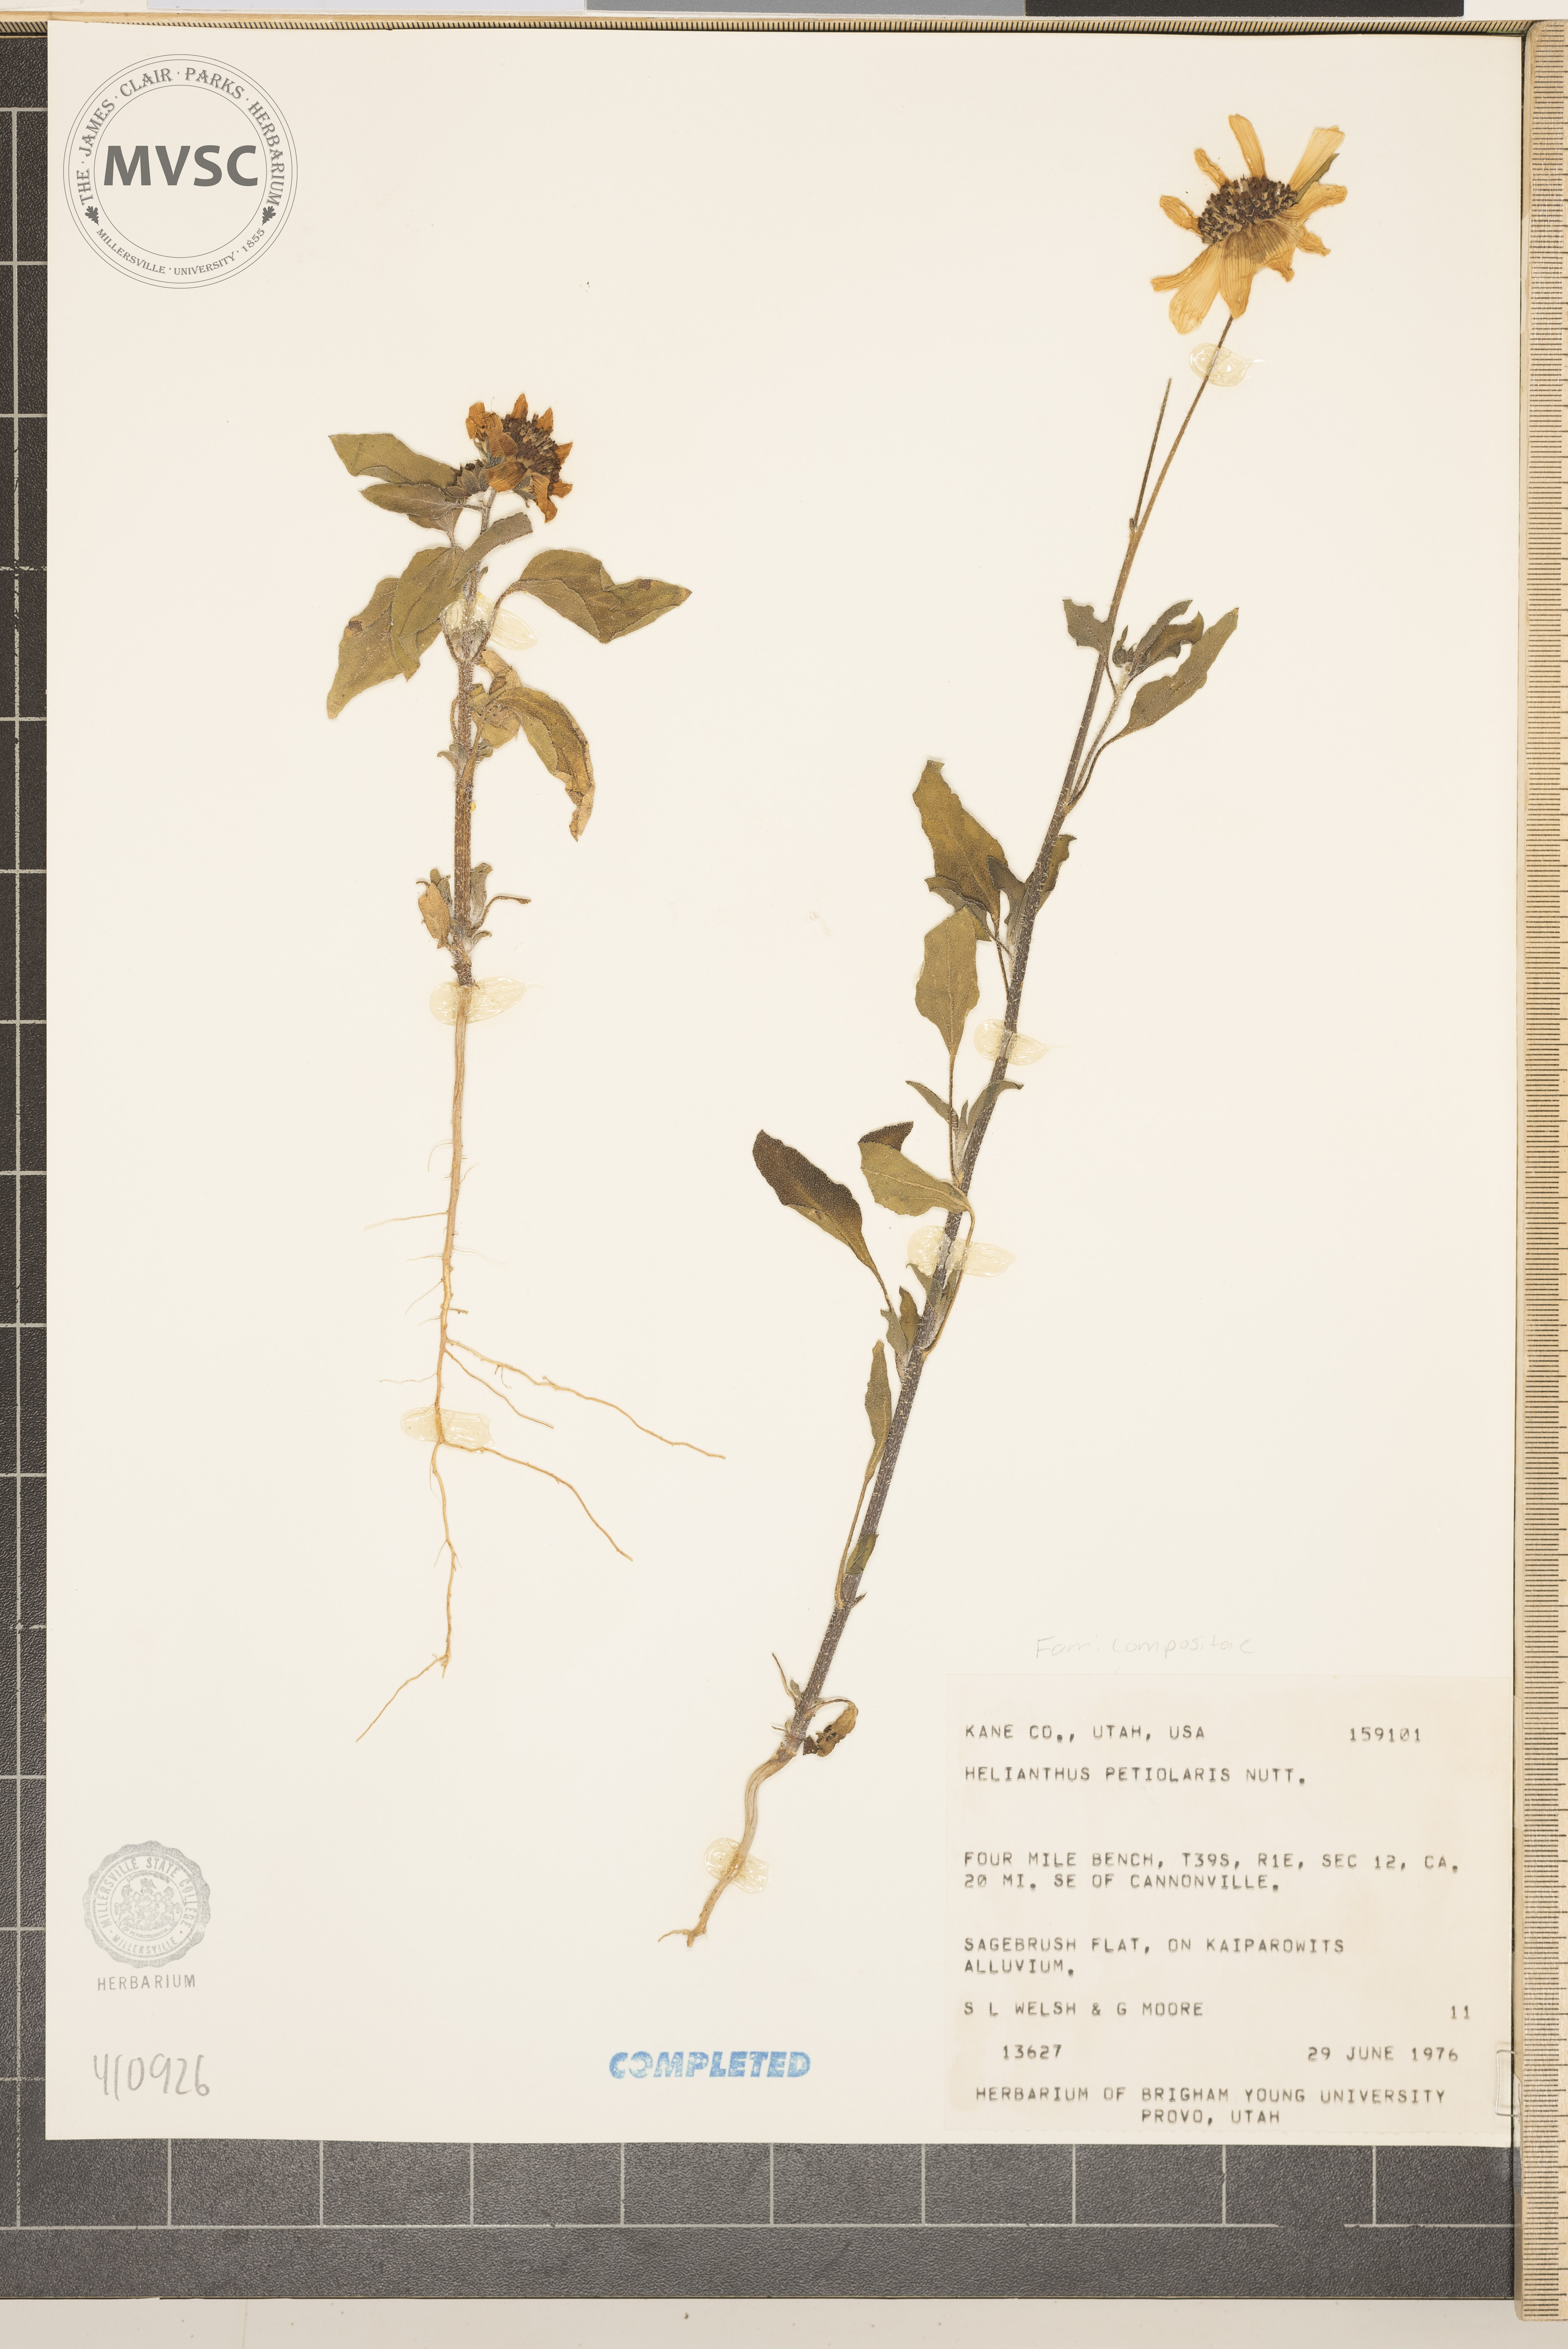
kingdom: Plantae
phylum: Tracheophyta
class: Magnoliopsida
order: Asterales
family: Asteraceae
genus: Helianthus
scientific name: Helianthus petiolaris
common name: Lesser sunflower
